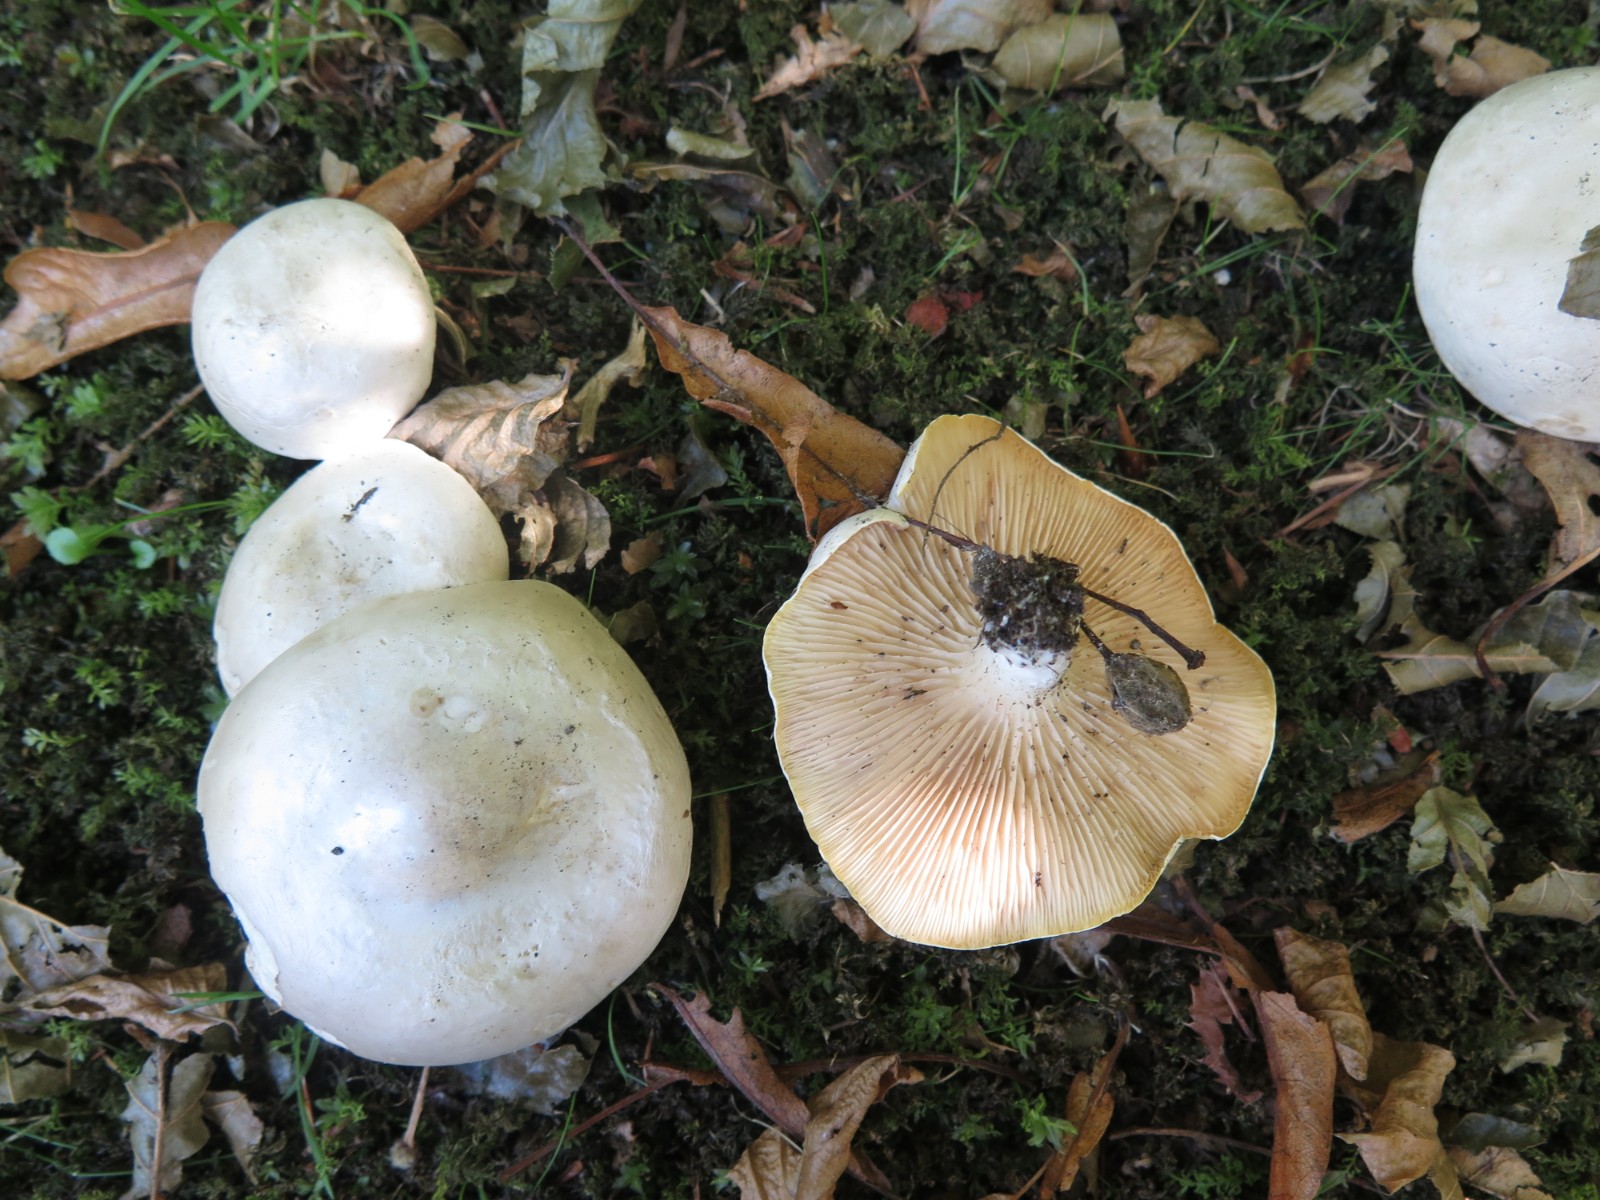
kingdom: Fungi
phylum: Basidiomycota
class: Agaricomycetes
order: Agaricales
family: Entolomataceae
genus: Clitopilus
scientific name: Clitopilus prunulus
